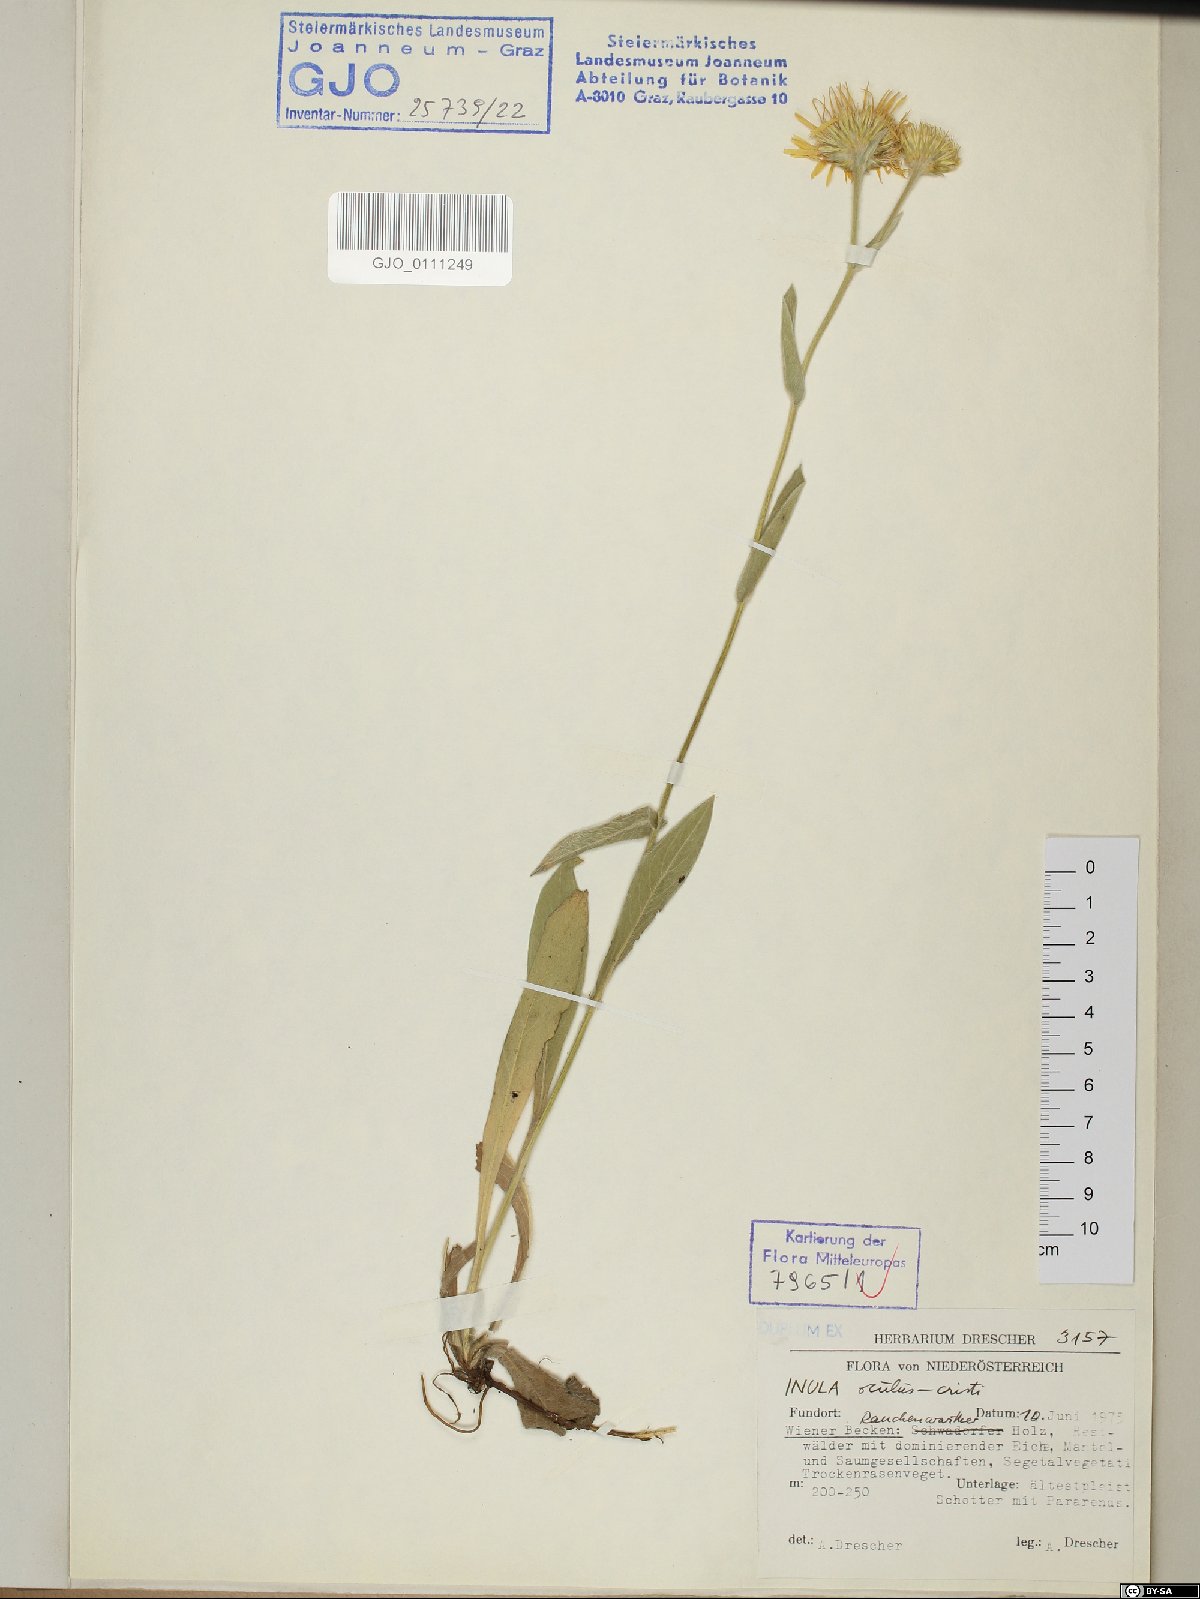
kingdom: Plantae
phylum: Tracheophyta
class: Magnoliopsida
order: Asterales
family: Asteraceae
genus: Pentanema
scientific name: Pentanema oculus-christi
